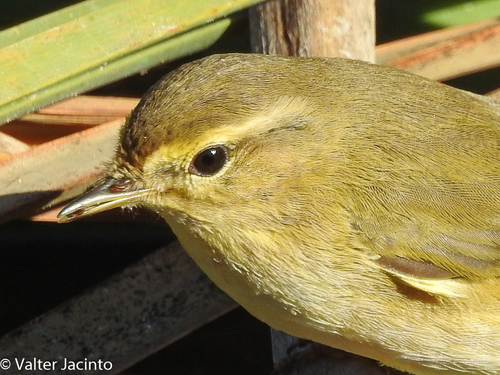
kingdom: Animalia
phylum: Chordata
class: Aves
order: Passeriformes
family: Phylloscopidae
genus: Phylloscopus
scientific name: Phylloscopus collybita
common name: Common chiffchaff
